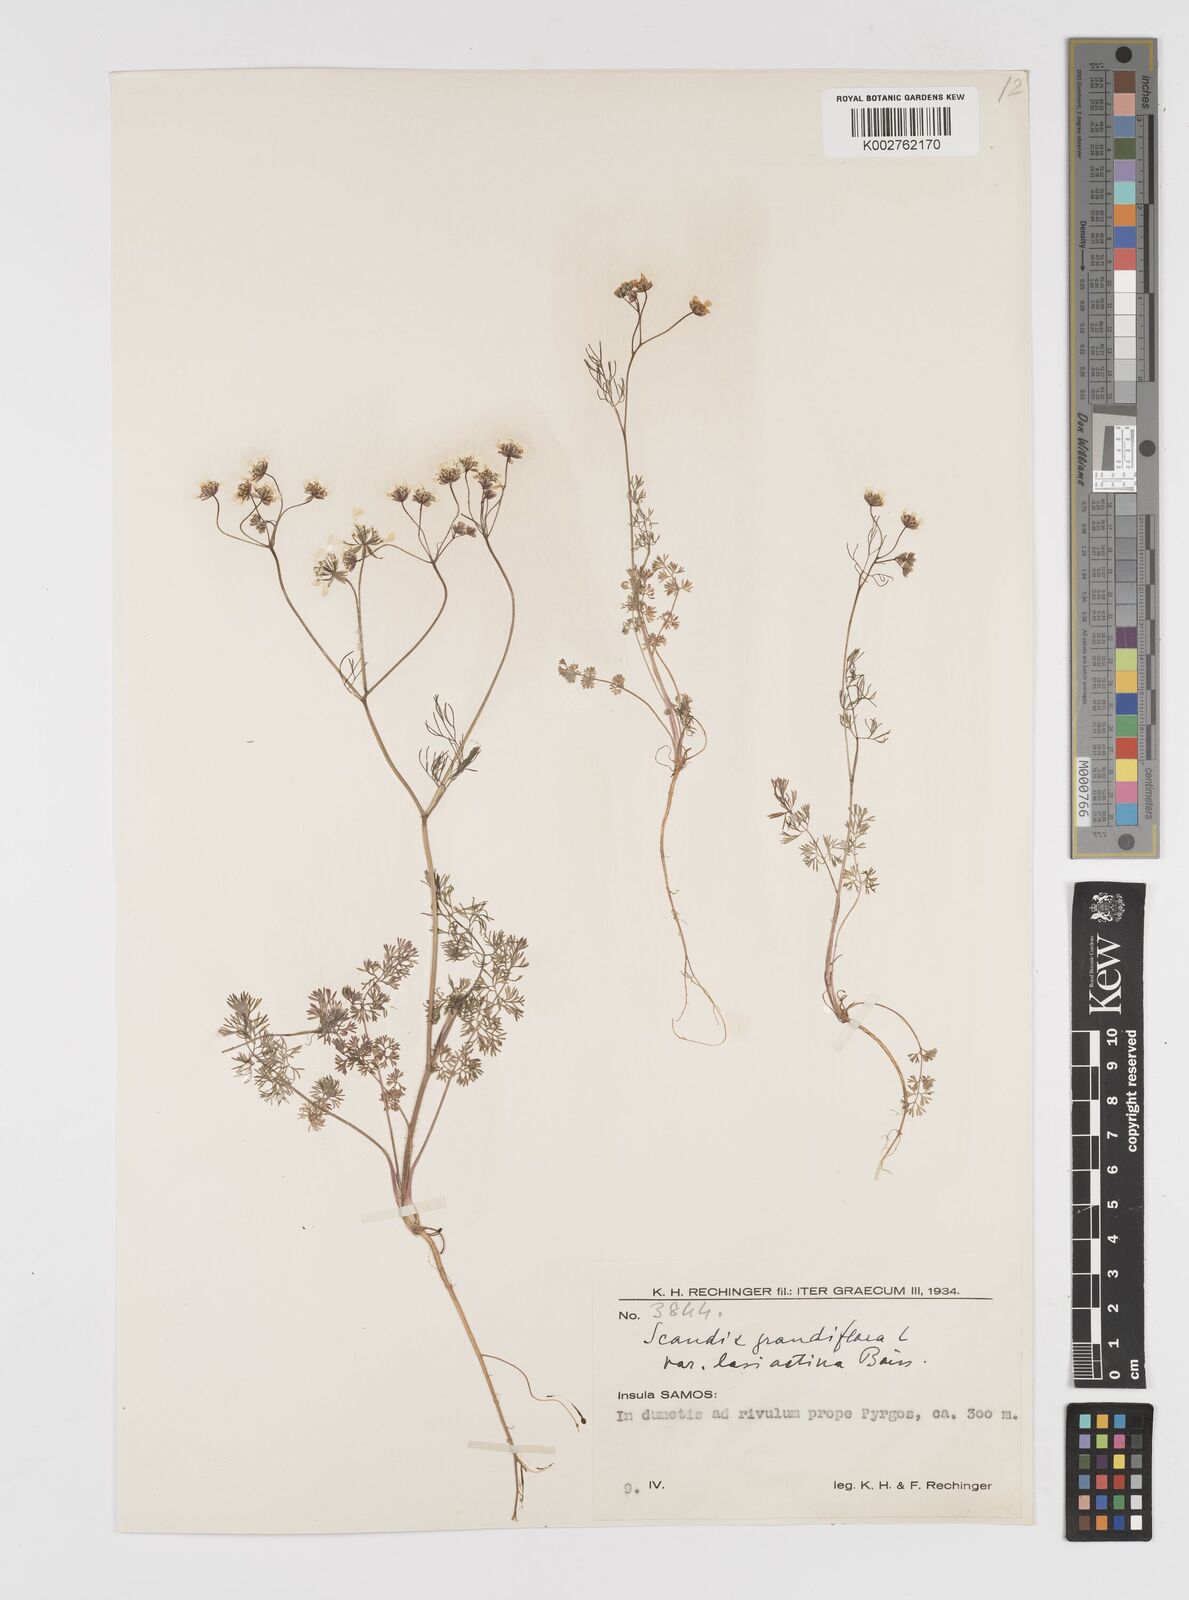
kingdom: Plantae
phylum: Tracheophyta
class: Magnoliopsida
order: Apiales
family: Apiaceae
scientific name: Apiaceae
